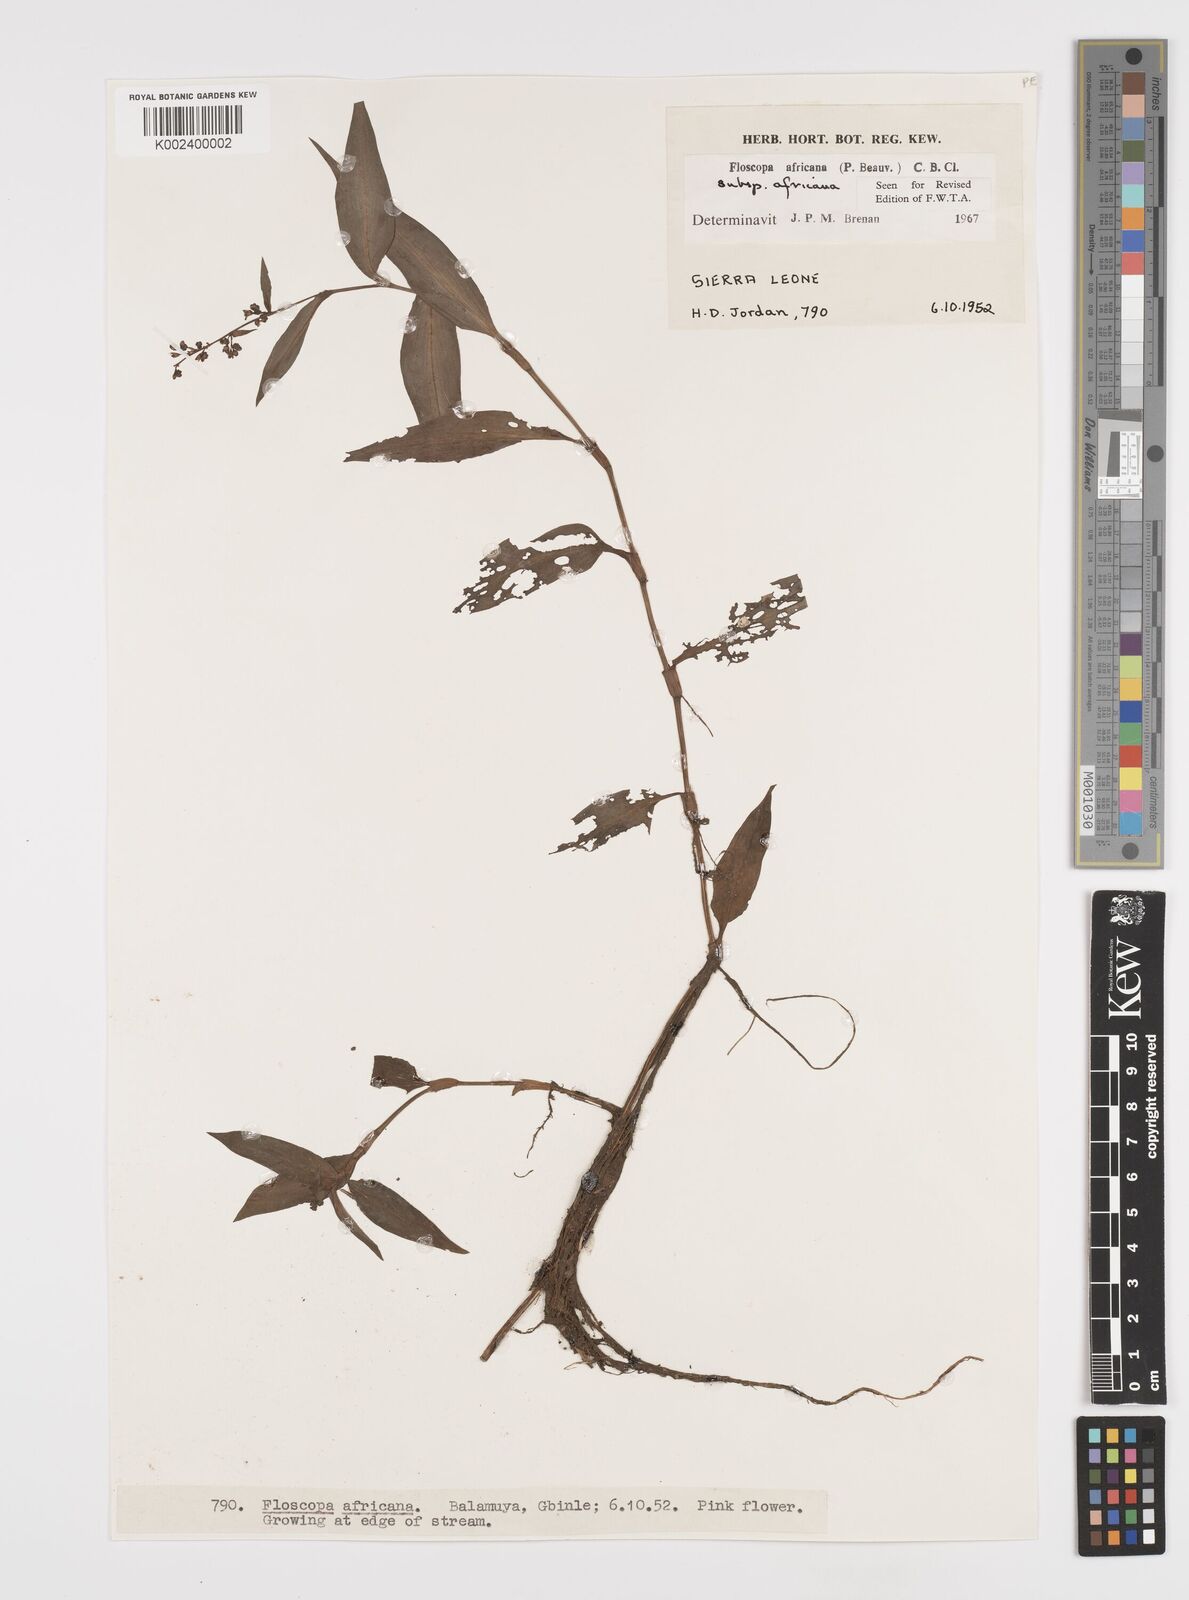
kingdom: Plantae
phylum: Tracheophyta
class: Liliopsida
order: Commelinales
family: Commelinaceae
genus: Floscopa
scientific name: Floscopa africana
